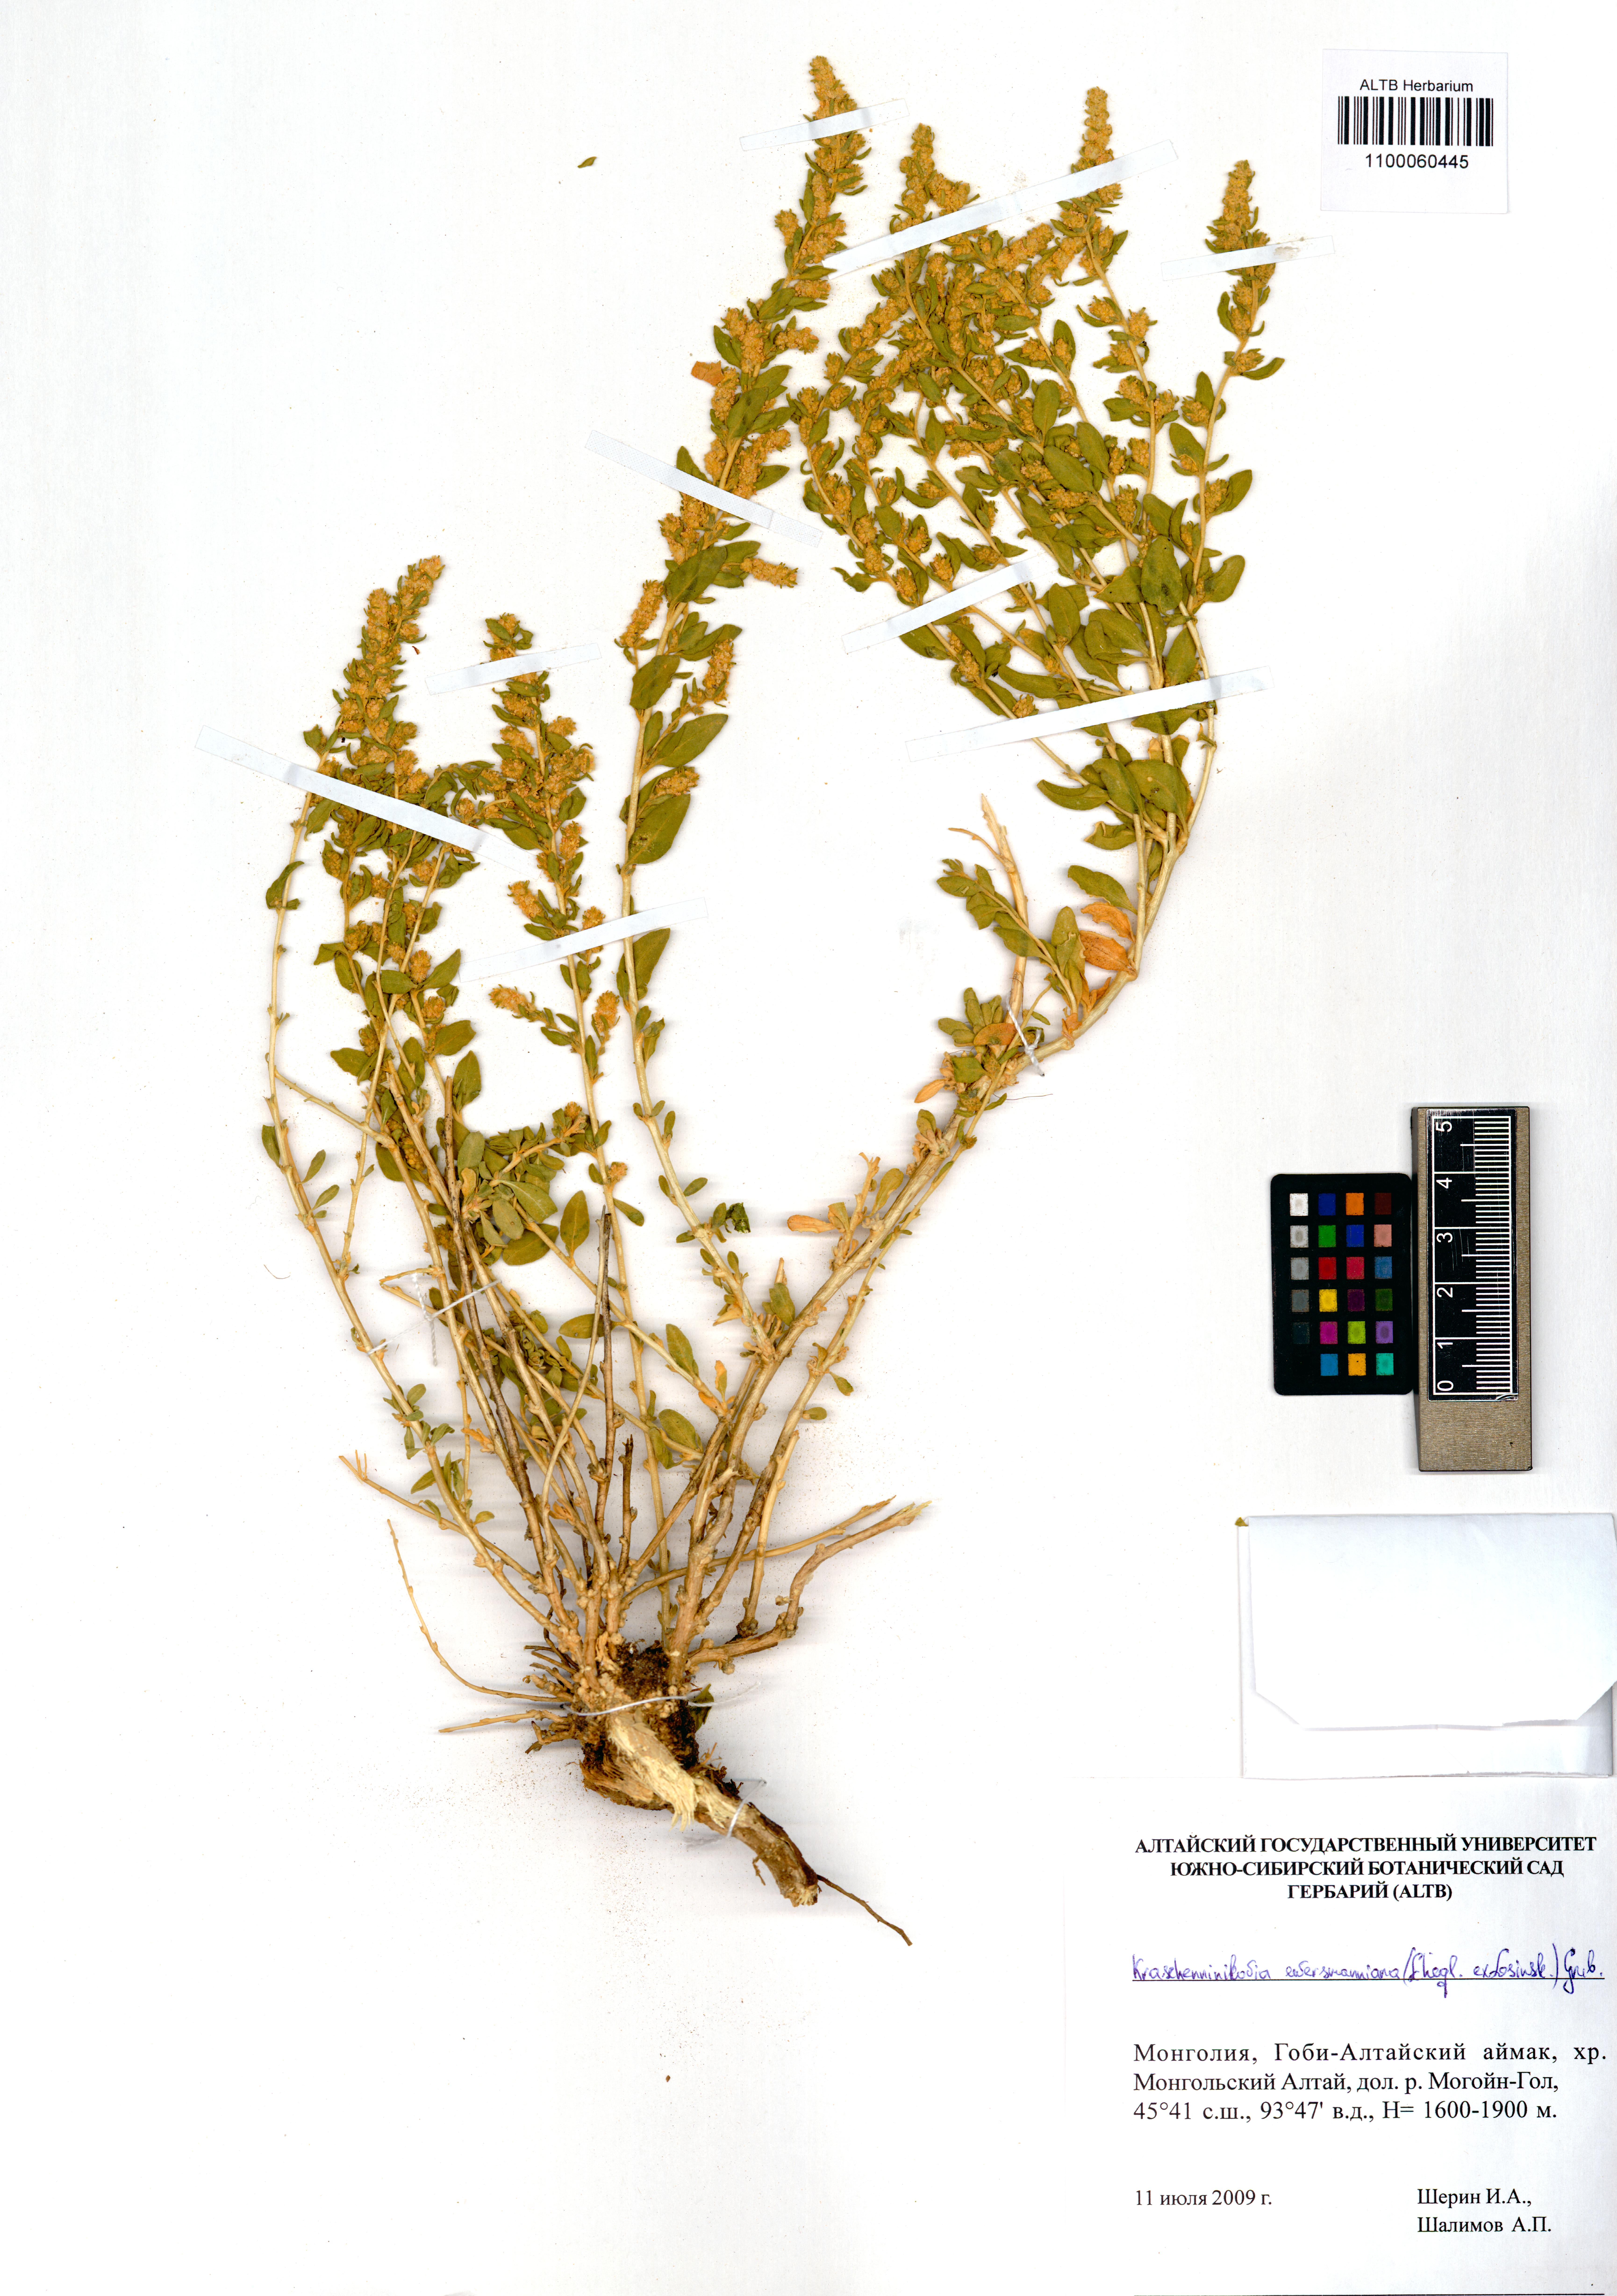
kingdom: Plantae
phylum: Tracheophyta
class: Magnoliopsida
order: Caryophyllales
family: Amaranthaceae
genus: Krascheninnikovia
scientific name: Krascheninnikovia ceratoides
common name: Pamirian winterfat
